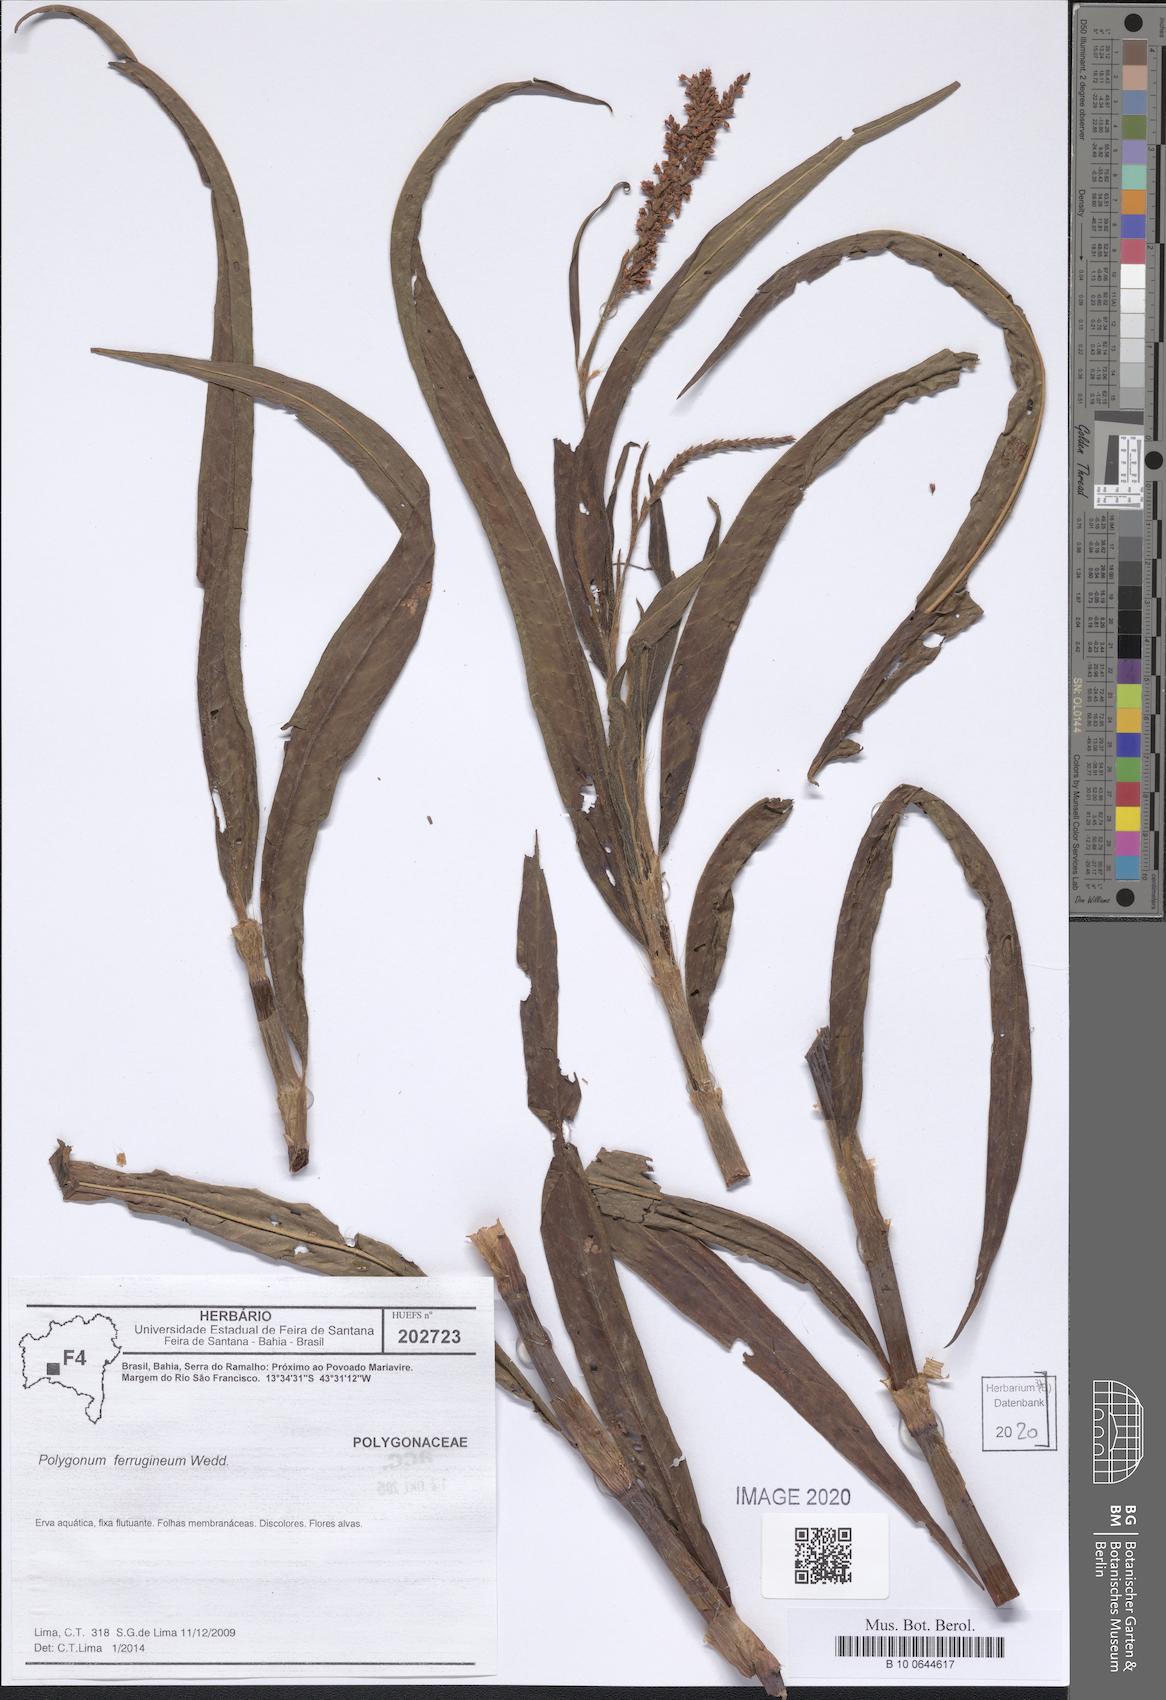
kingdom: Plantae
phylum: Tracheophyta
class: Magnoliopsida
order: Caryophyllales
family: Polygonaceae
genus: Persicaria
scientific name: Persicaria ferruginea
